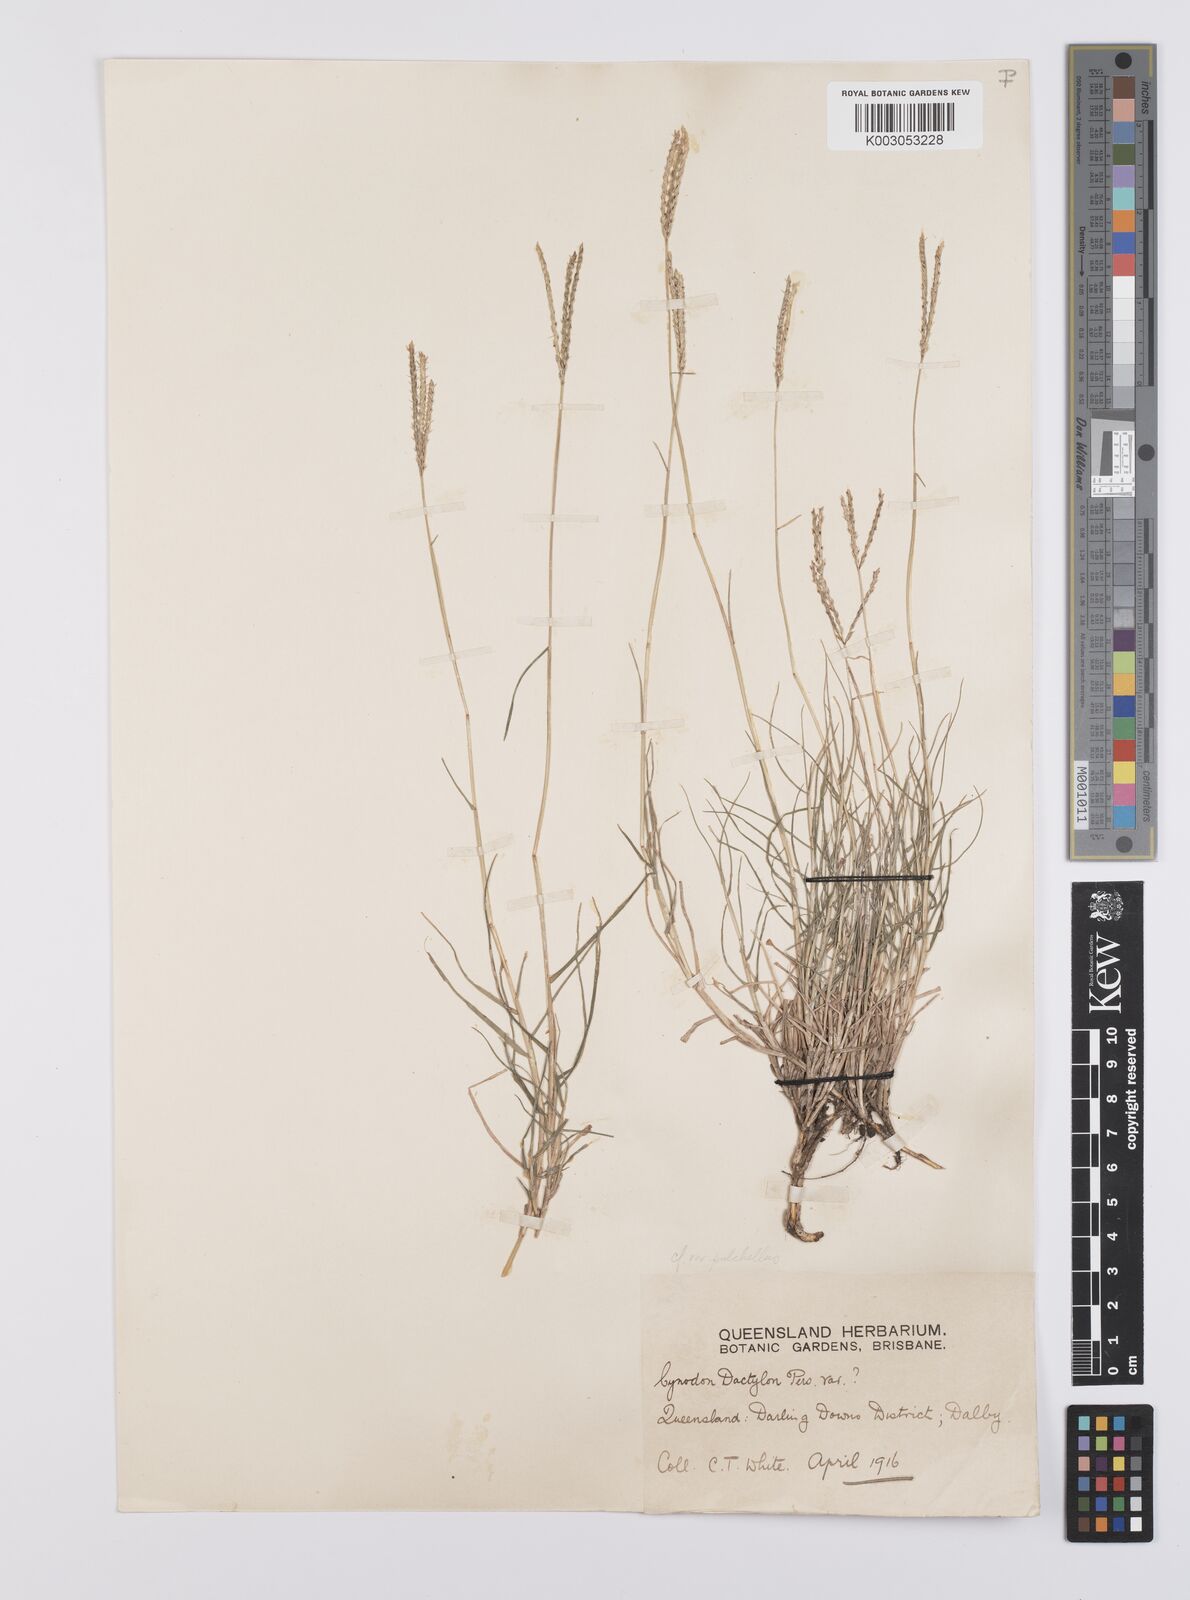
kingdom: Plantae
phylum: Tracheophyta
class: Liliopsida
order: Poales
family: Poaceae
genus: Cynodon
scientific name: Cynodon dactylon
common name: Bermuda grass
